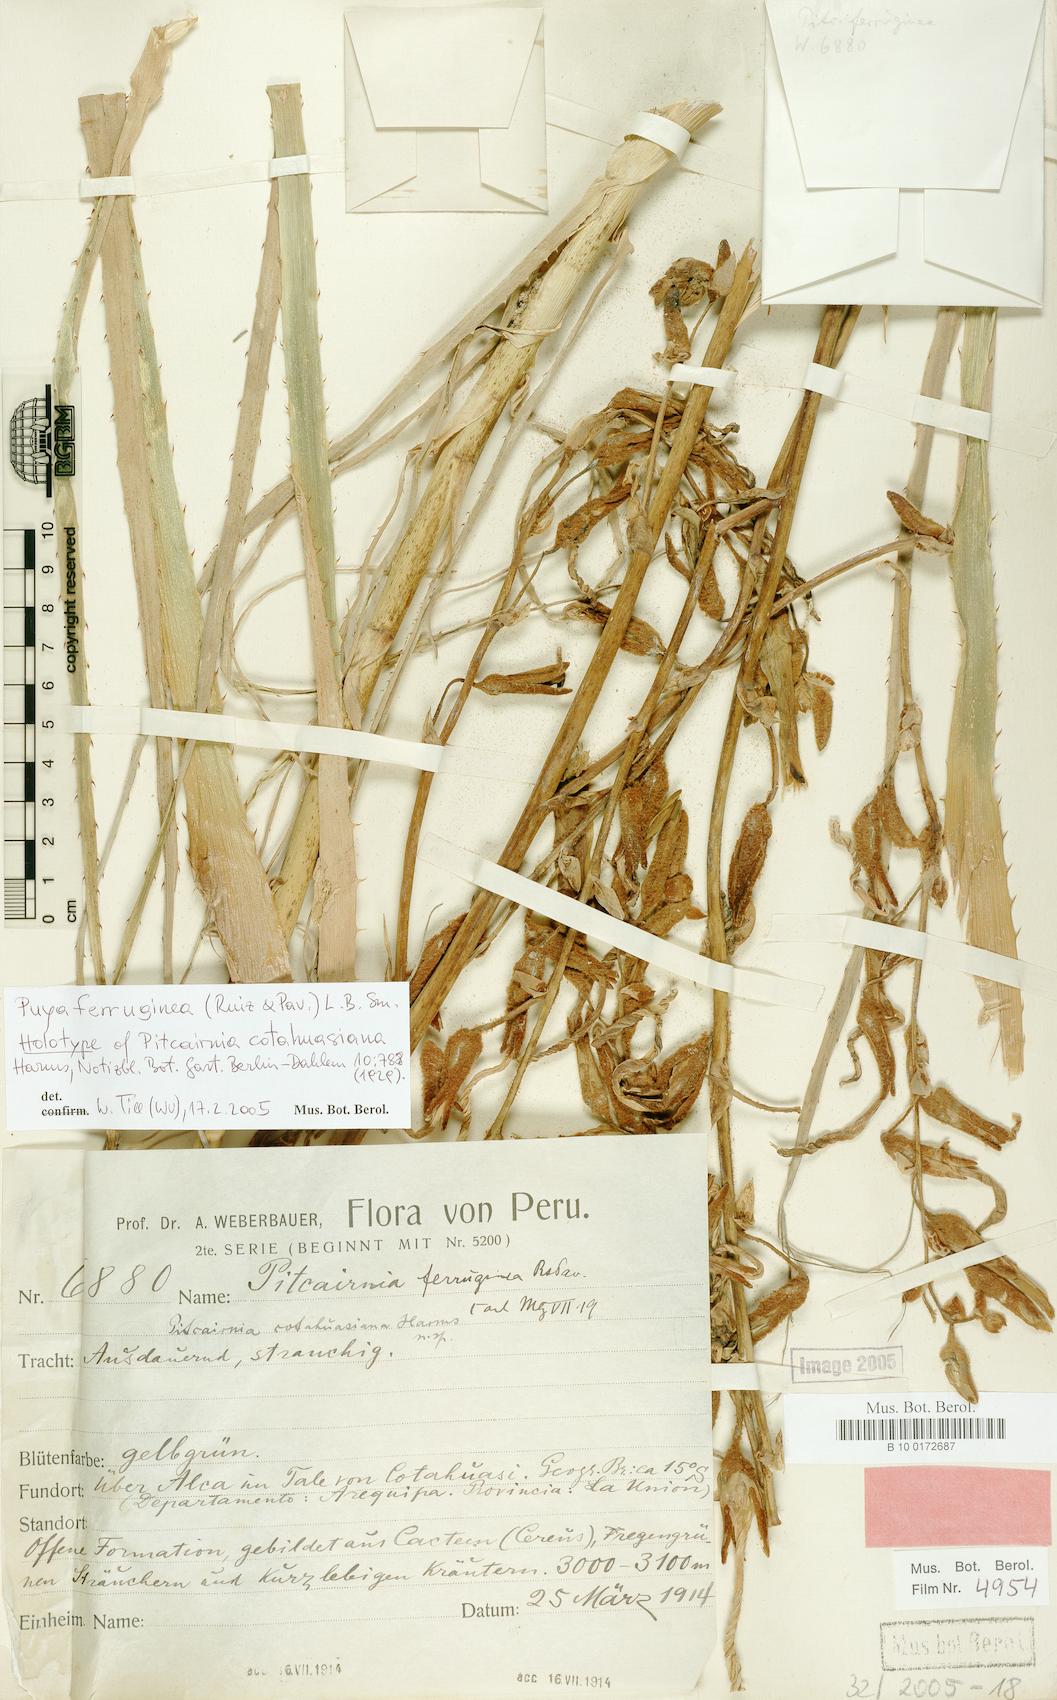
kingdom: Plantae
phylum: Tracheophyta
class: Liliopsida
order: Poales
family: Bromeliaceae
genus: Puya
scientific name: Puya ferruginea
